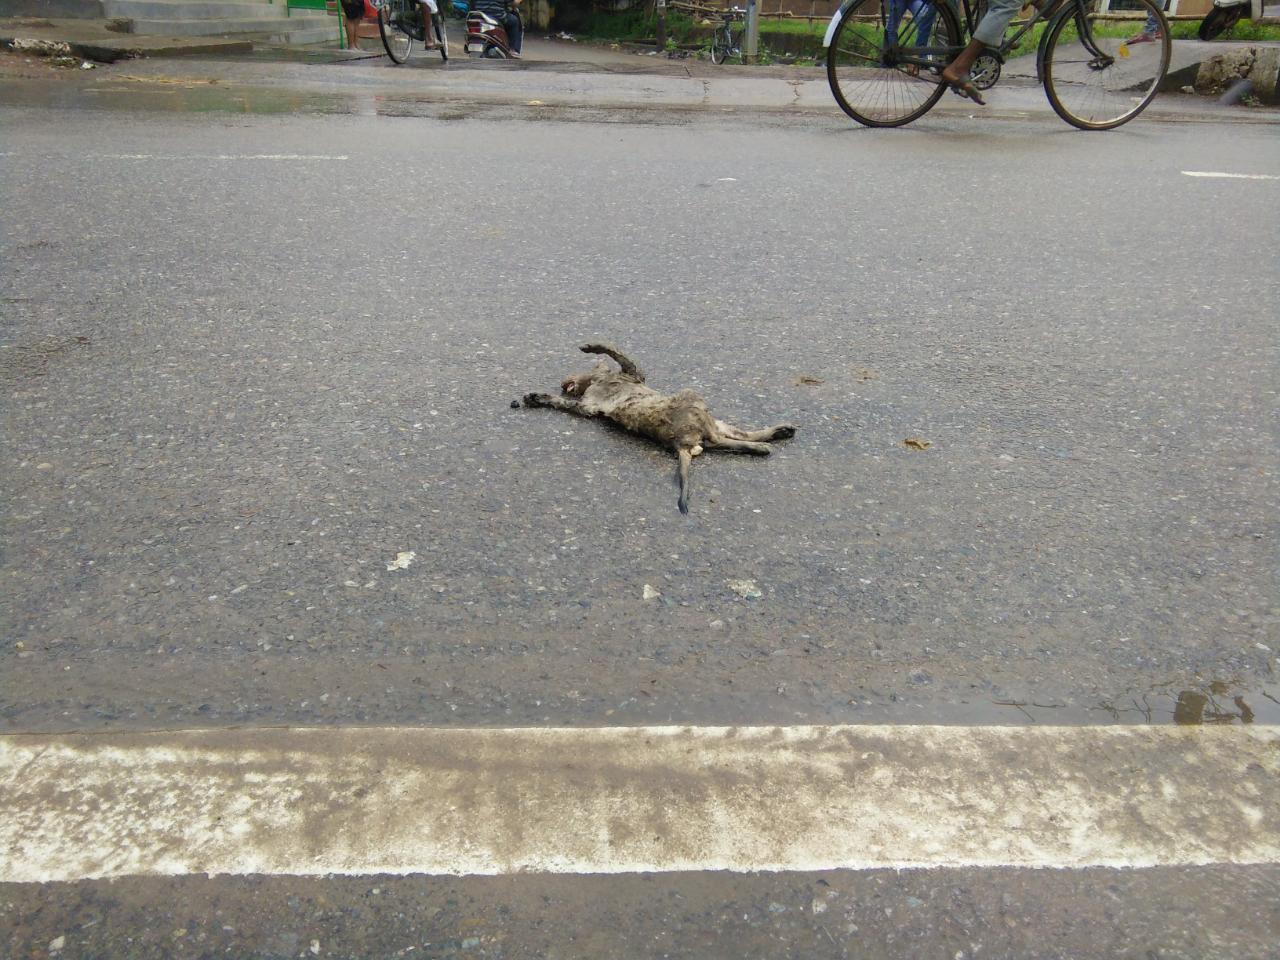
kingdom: Animalia
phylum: Chordata
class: Mammalia
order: Primates
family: Cercopithecidae
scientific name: Cercopithecidae
